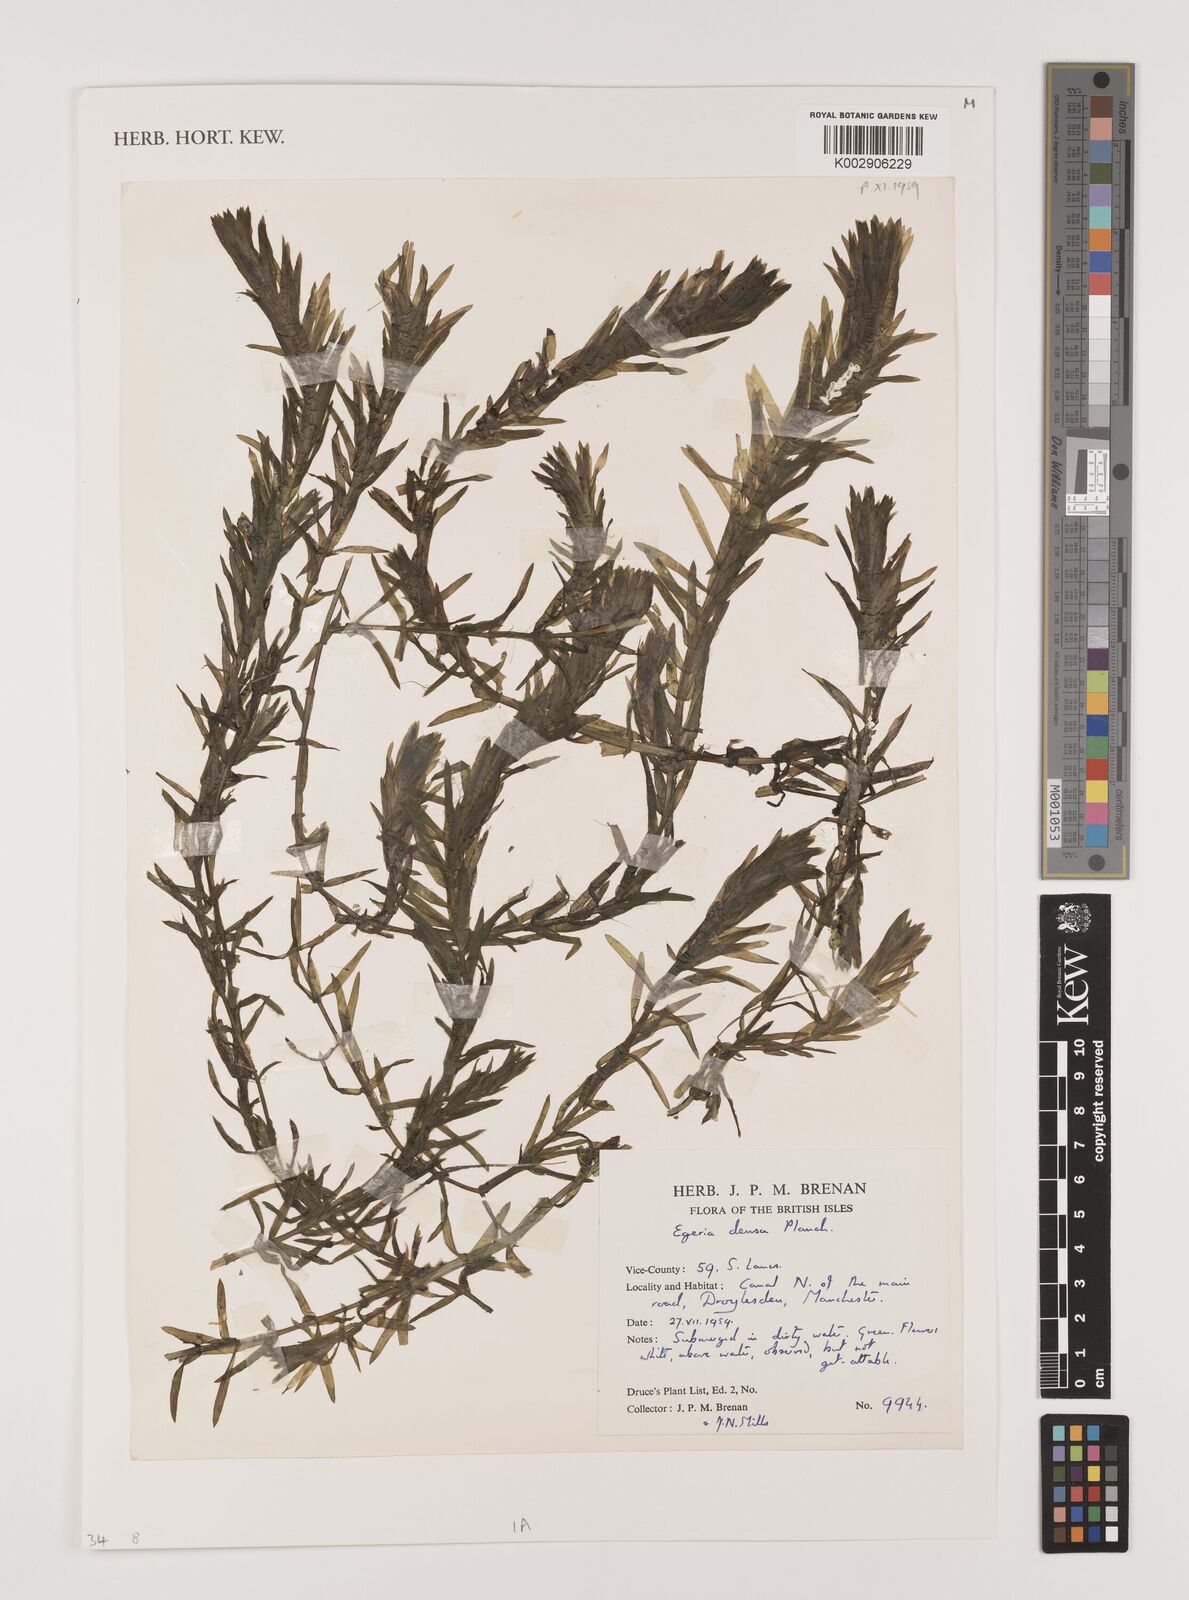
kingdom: Plantae
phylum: Tracheophyta
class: Liliopsida
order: Alismatales
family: Hydrocharitaceae
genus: Elodea
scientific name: Elodea densa
